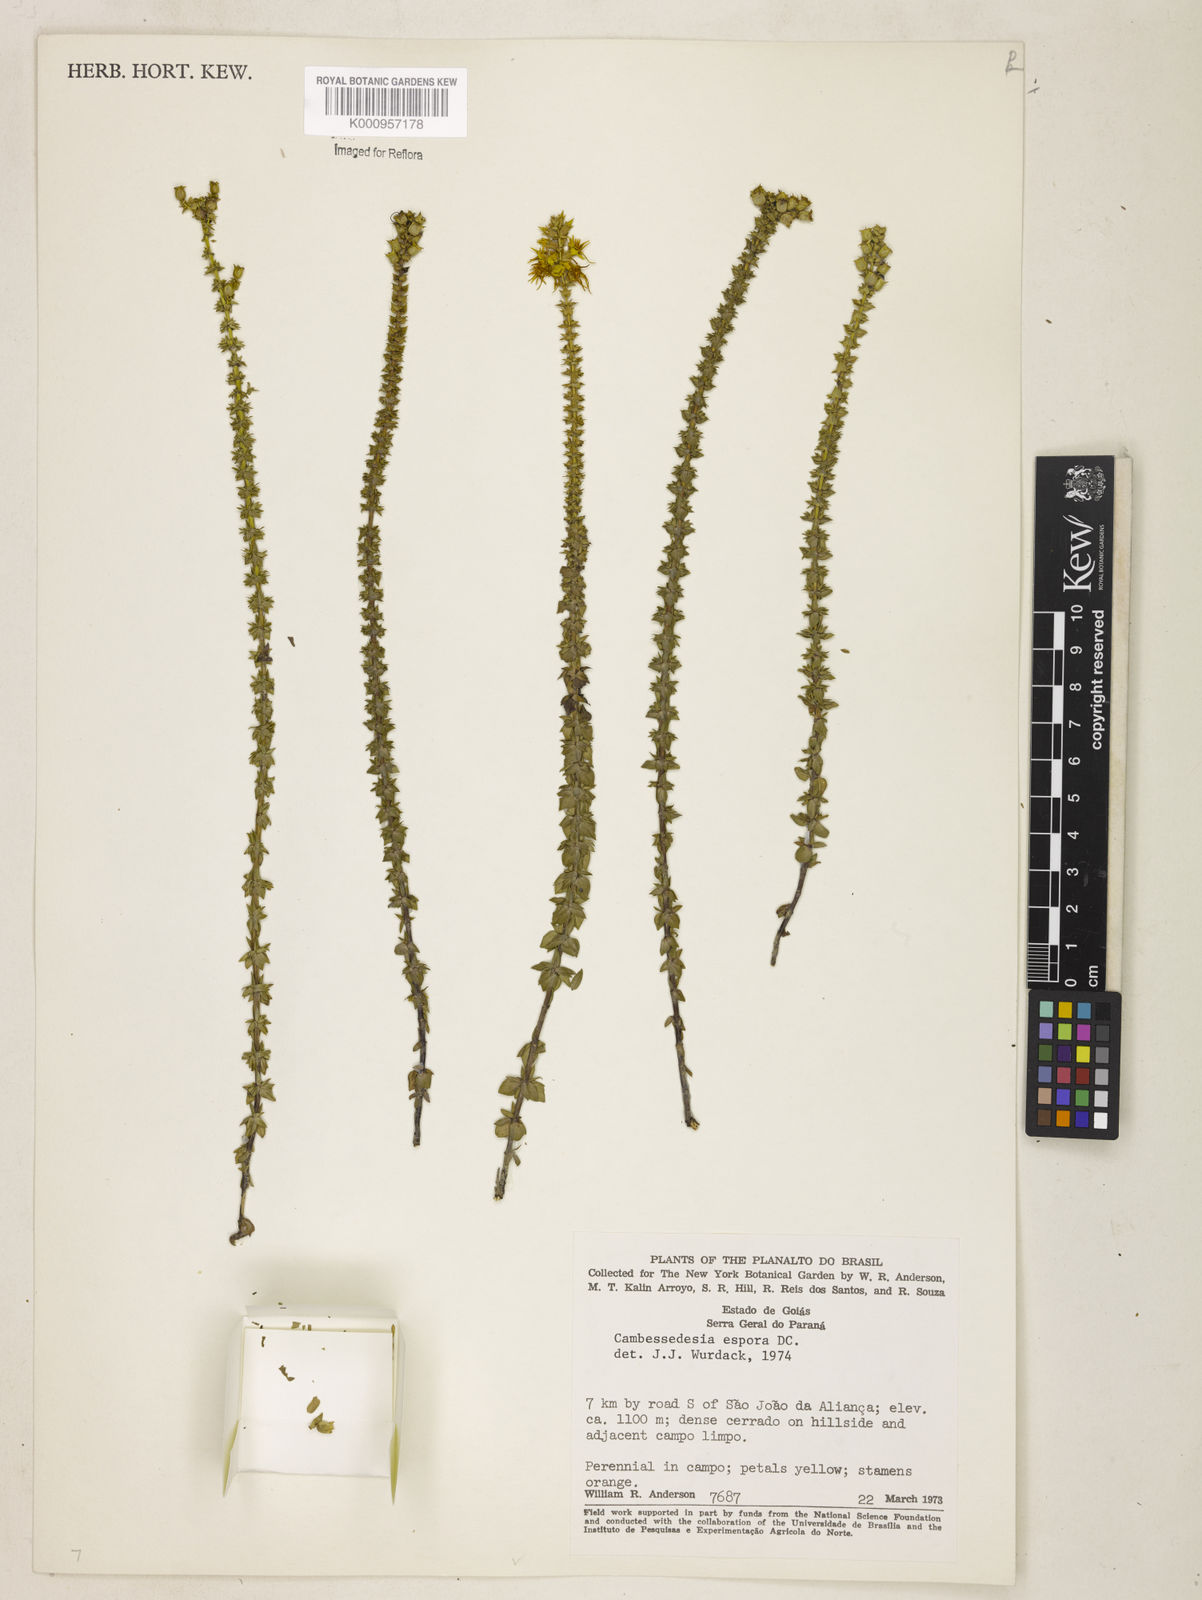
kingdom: Plantae
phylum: Tracheophyta
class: Magnoliopsida
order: Myrtales
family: Melastomataceae
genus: Cambessedesia
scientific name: Cambessedesia espora
